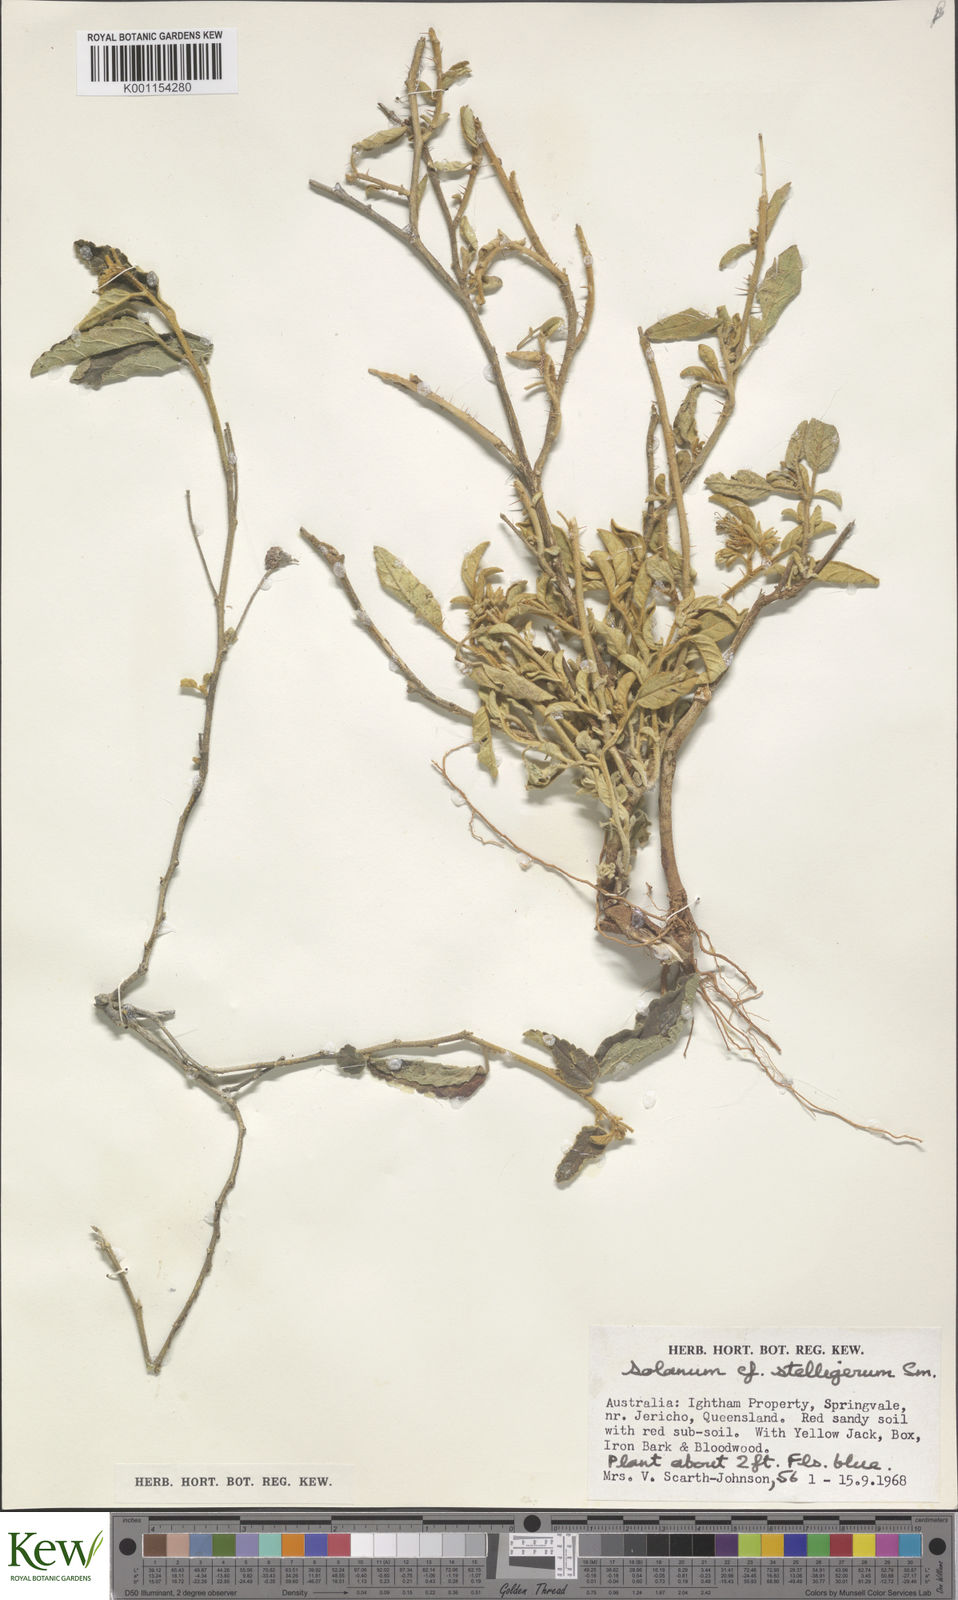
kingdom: Plantae
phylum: Tracheophyta
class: Magnoliopsida
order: Solanales
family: Solanaceae
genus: Solanum
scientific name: Solanum stelligerum
